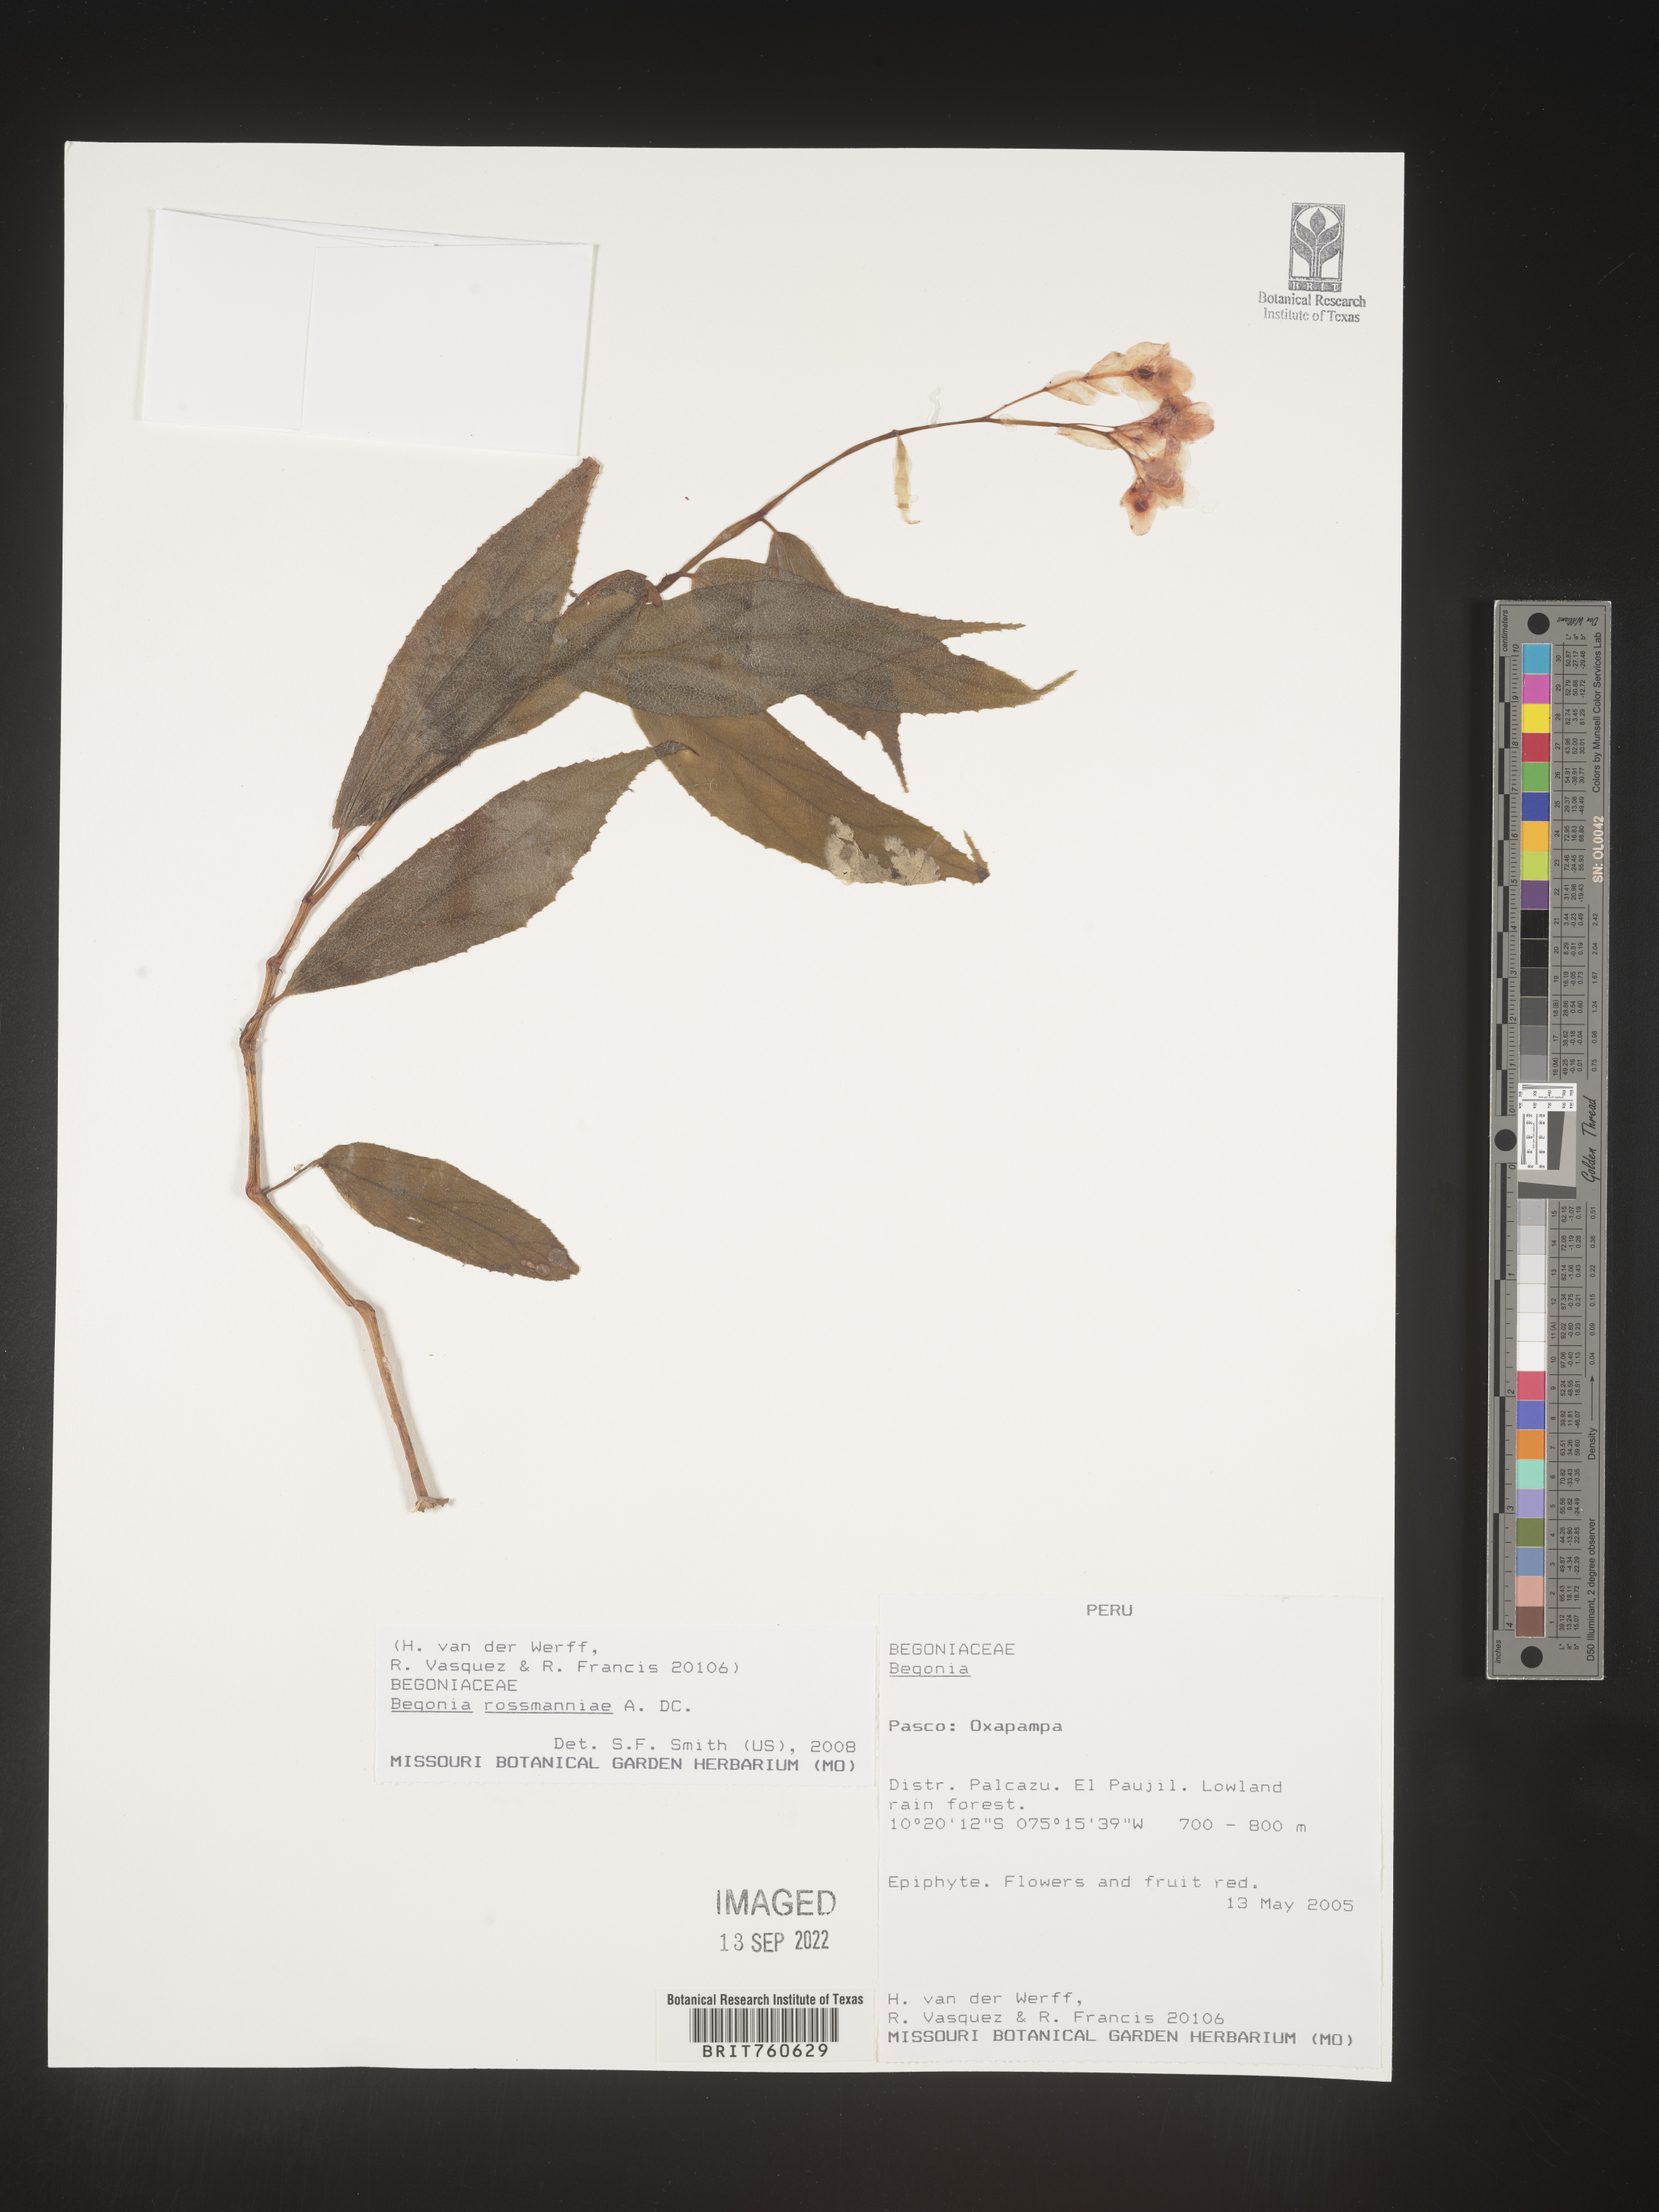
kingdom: Plantae
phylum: Tracheophyta
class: Magnoliopsida
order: Cucurbitales
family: Begoniaceae
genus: Begonia
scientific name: Begonia
